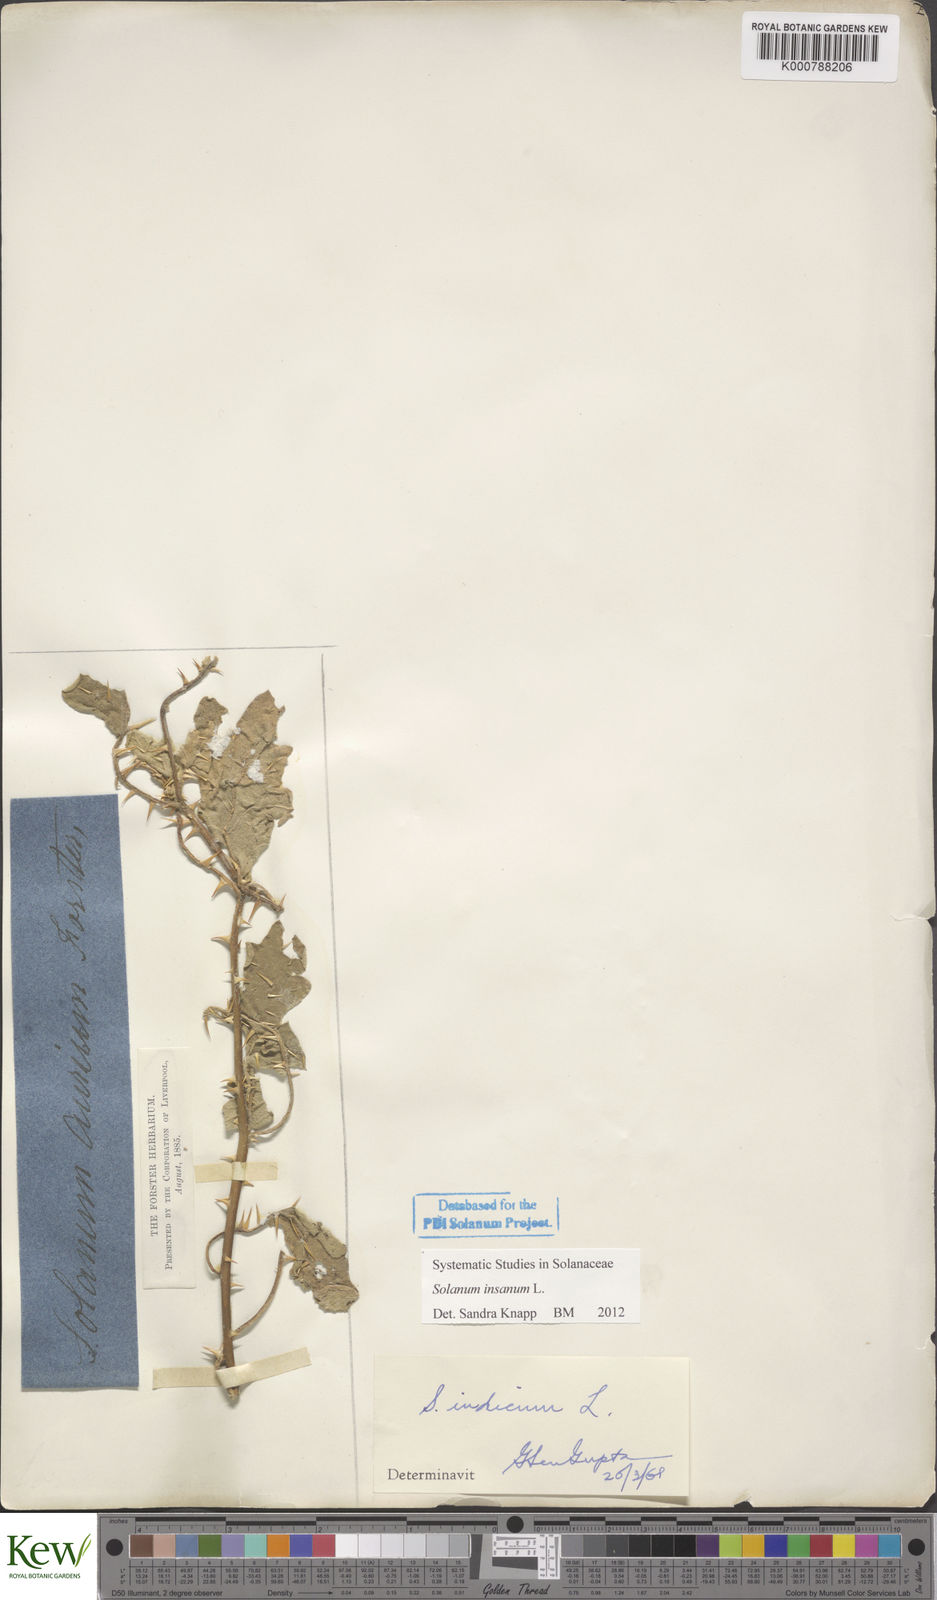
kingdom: Plantae
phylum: Tracheophyta
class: Magnoliopsida
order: Solanales
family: Solanaceae
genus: Solanum
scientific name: Solanum insanum
